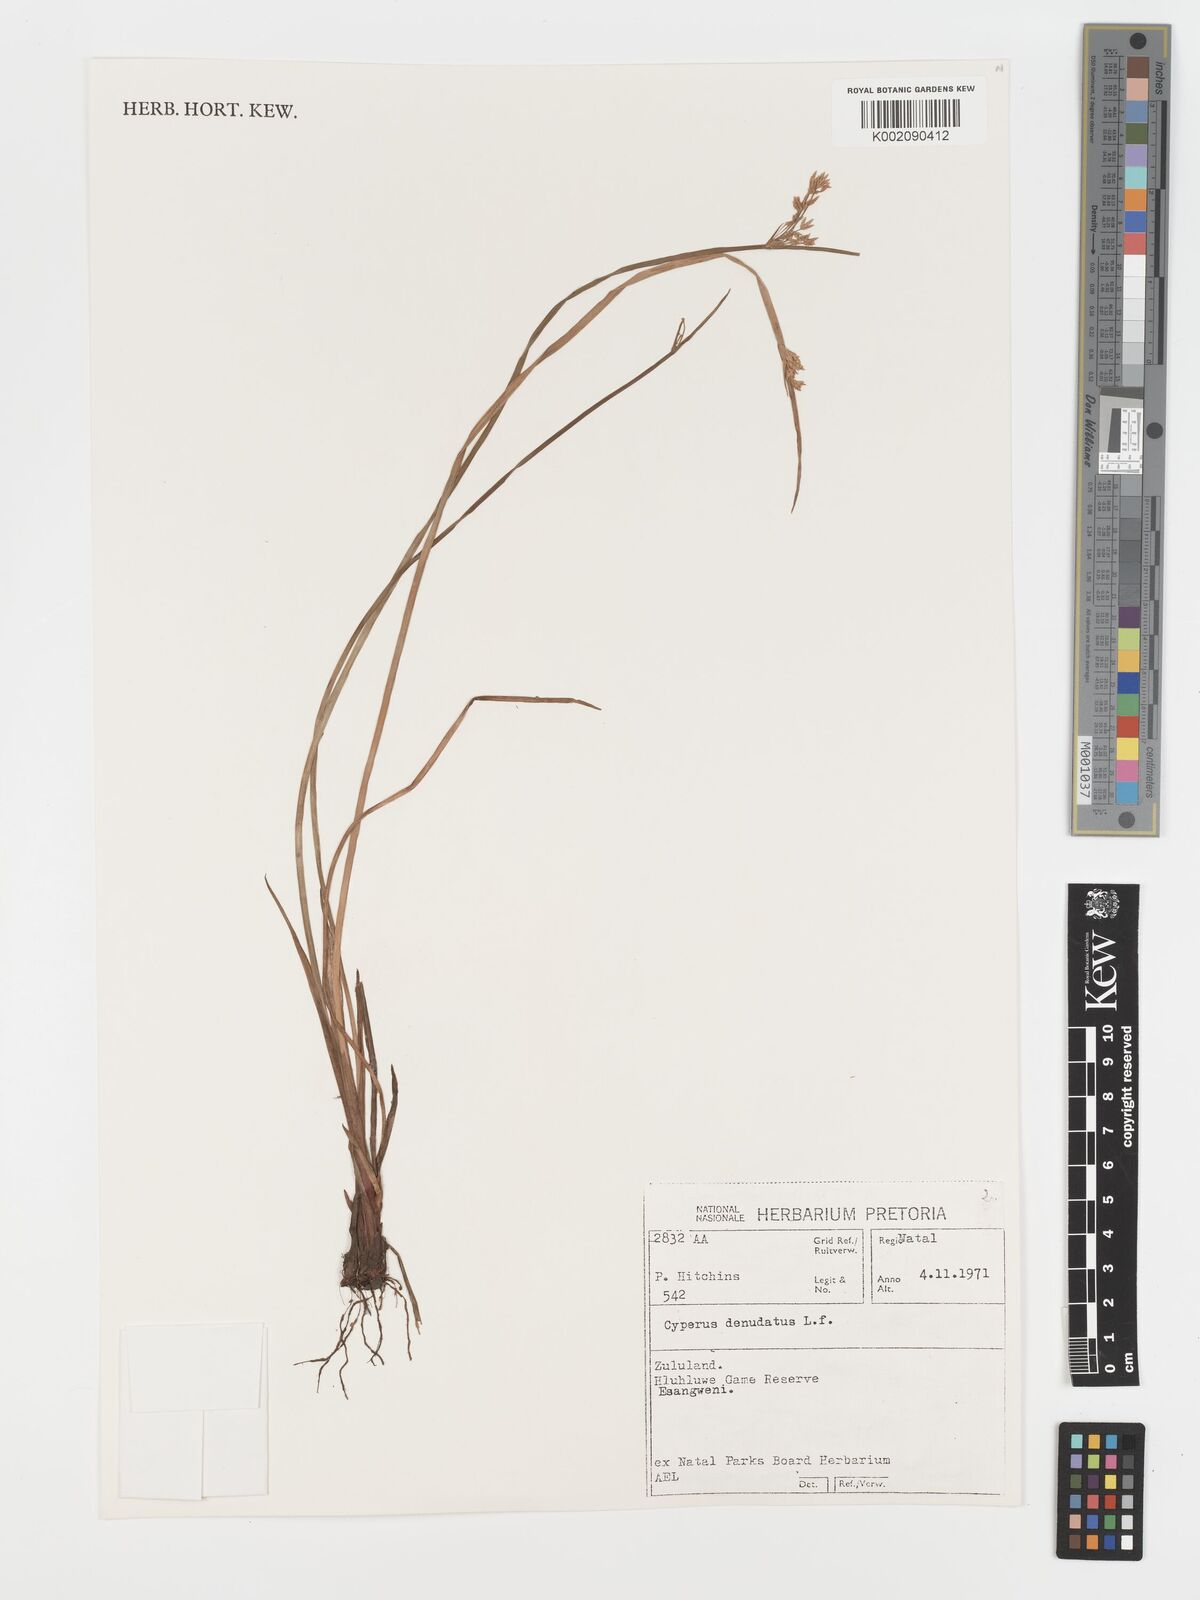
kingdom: Plantae
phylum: Tracheophyta
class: Liliopsida
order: Poales
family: Cyperaceae
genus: Cyperus
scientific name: Cyperus denudatus
